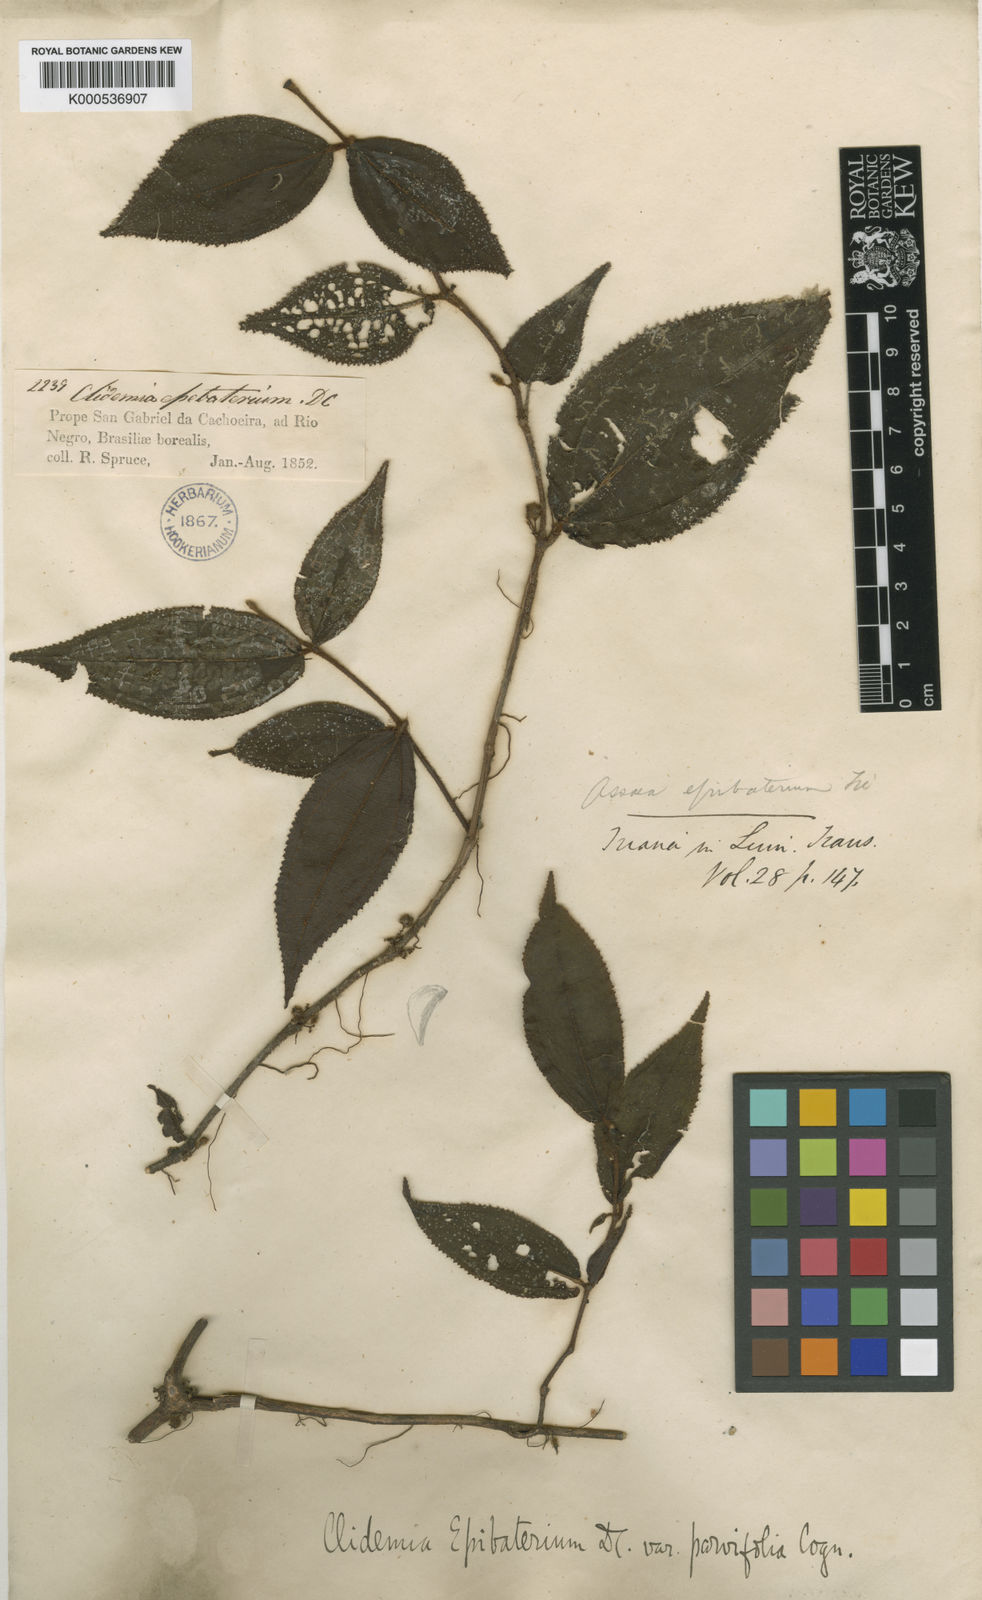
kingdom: Plantae
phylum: Tracheophyta
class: Magnoliopsida
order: Myrtales
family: Melastomataceae
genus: Miconia
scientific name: Miconia epibaterium
